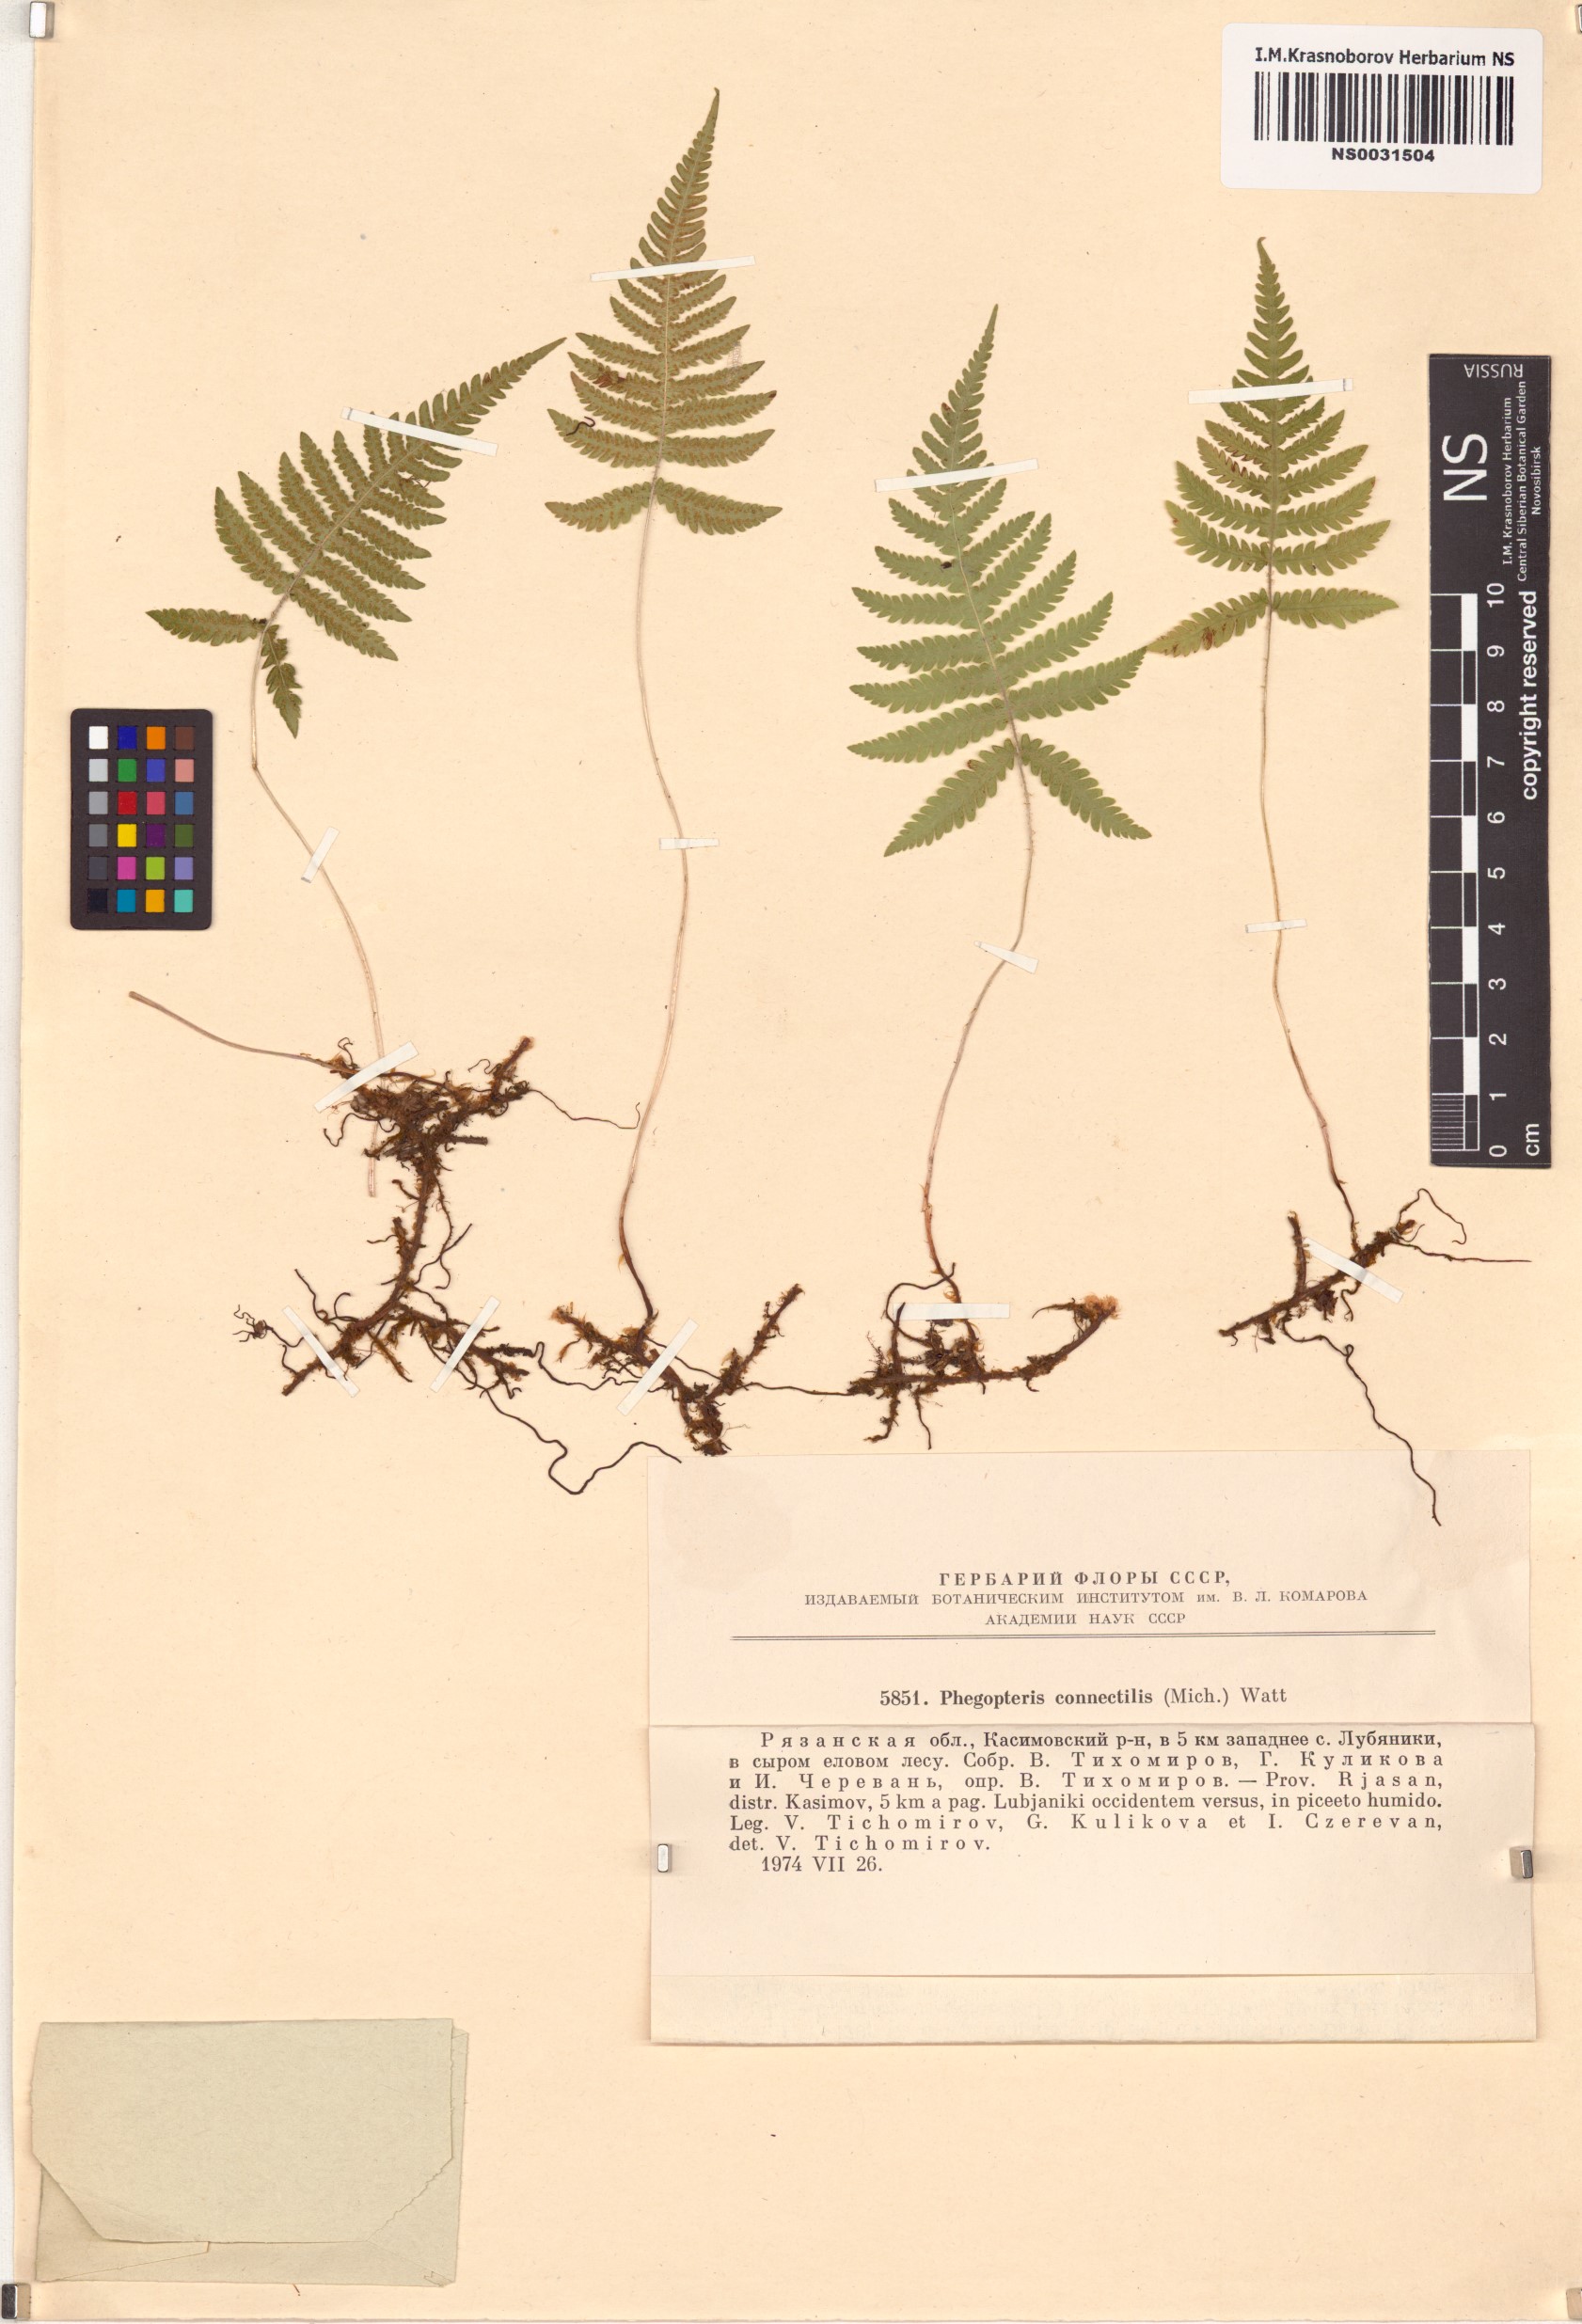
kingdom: Plantae
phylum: Tracheophyta
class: Polypodiopsida
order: Polypodiales
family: Thelypteridaceae
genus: Phegopteris
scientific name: Phegopteris connectilis
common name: Beech fern
